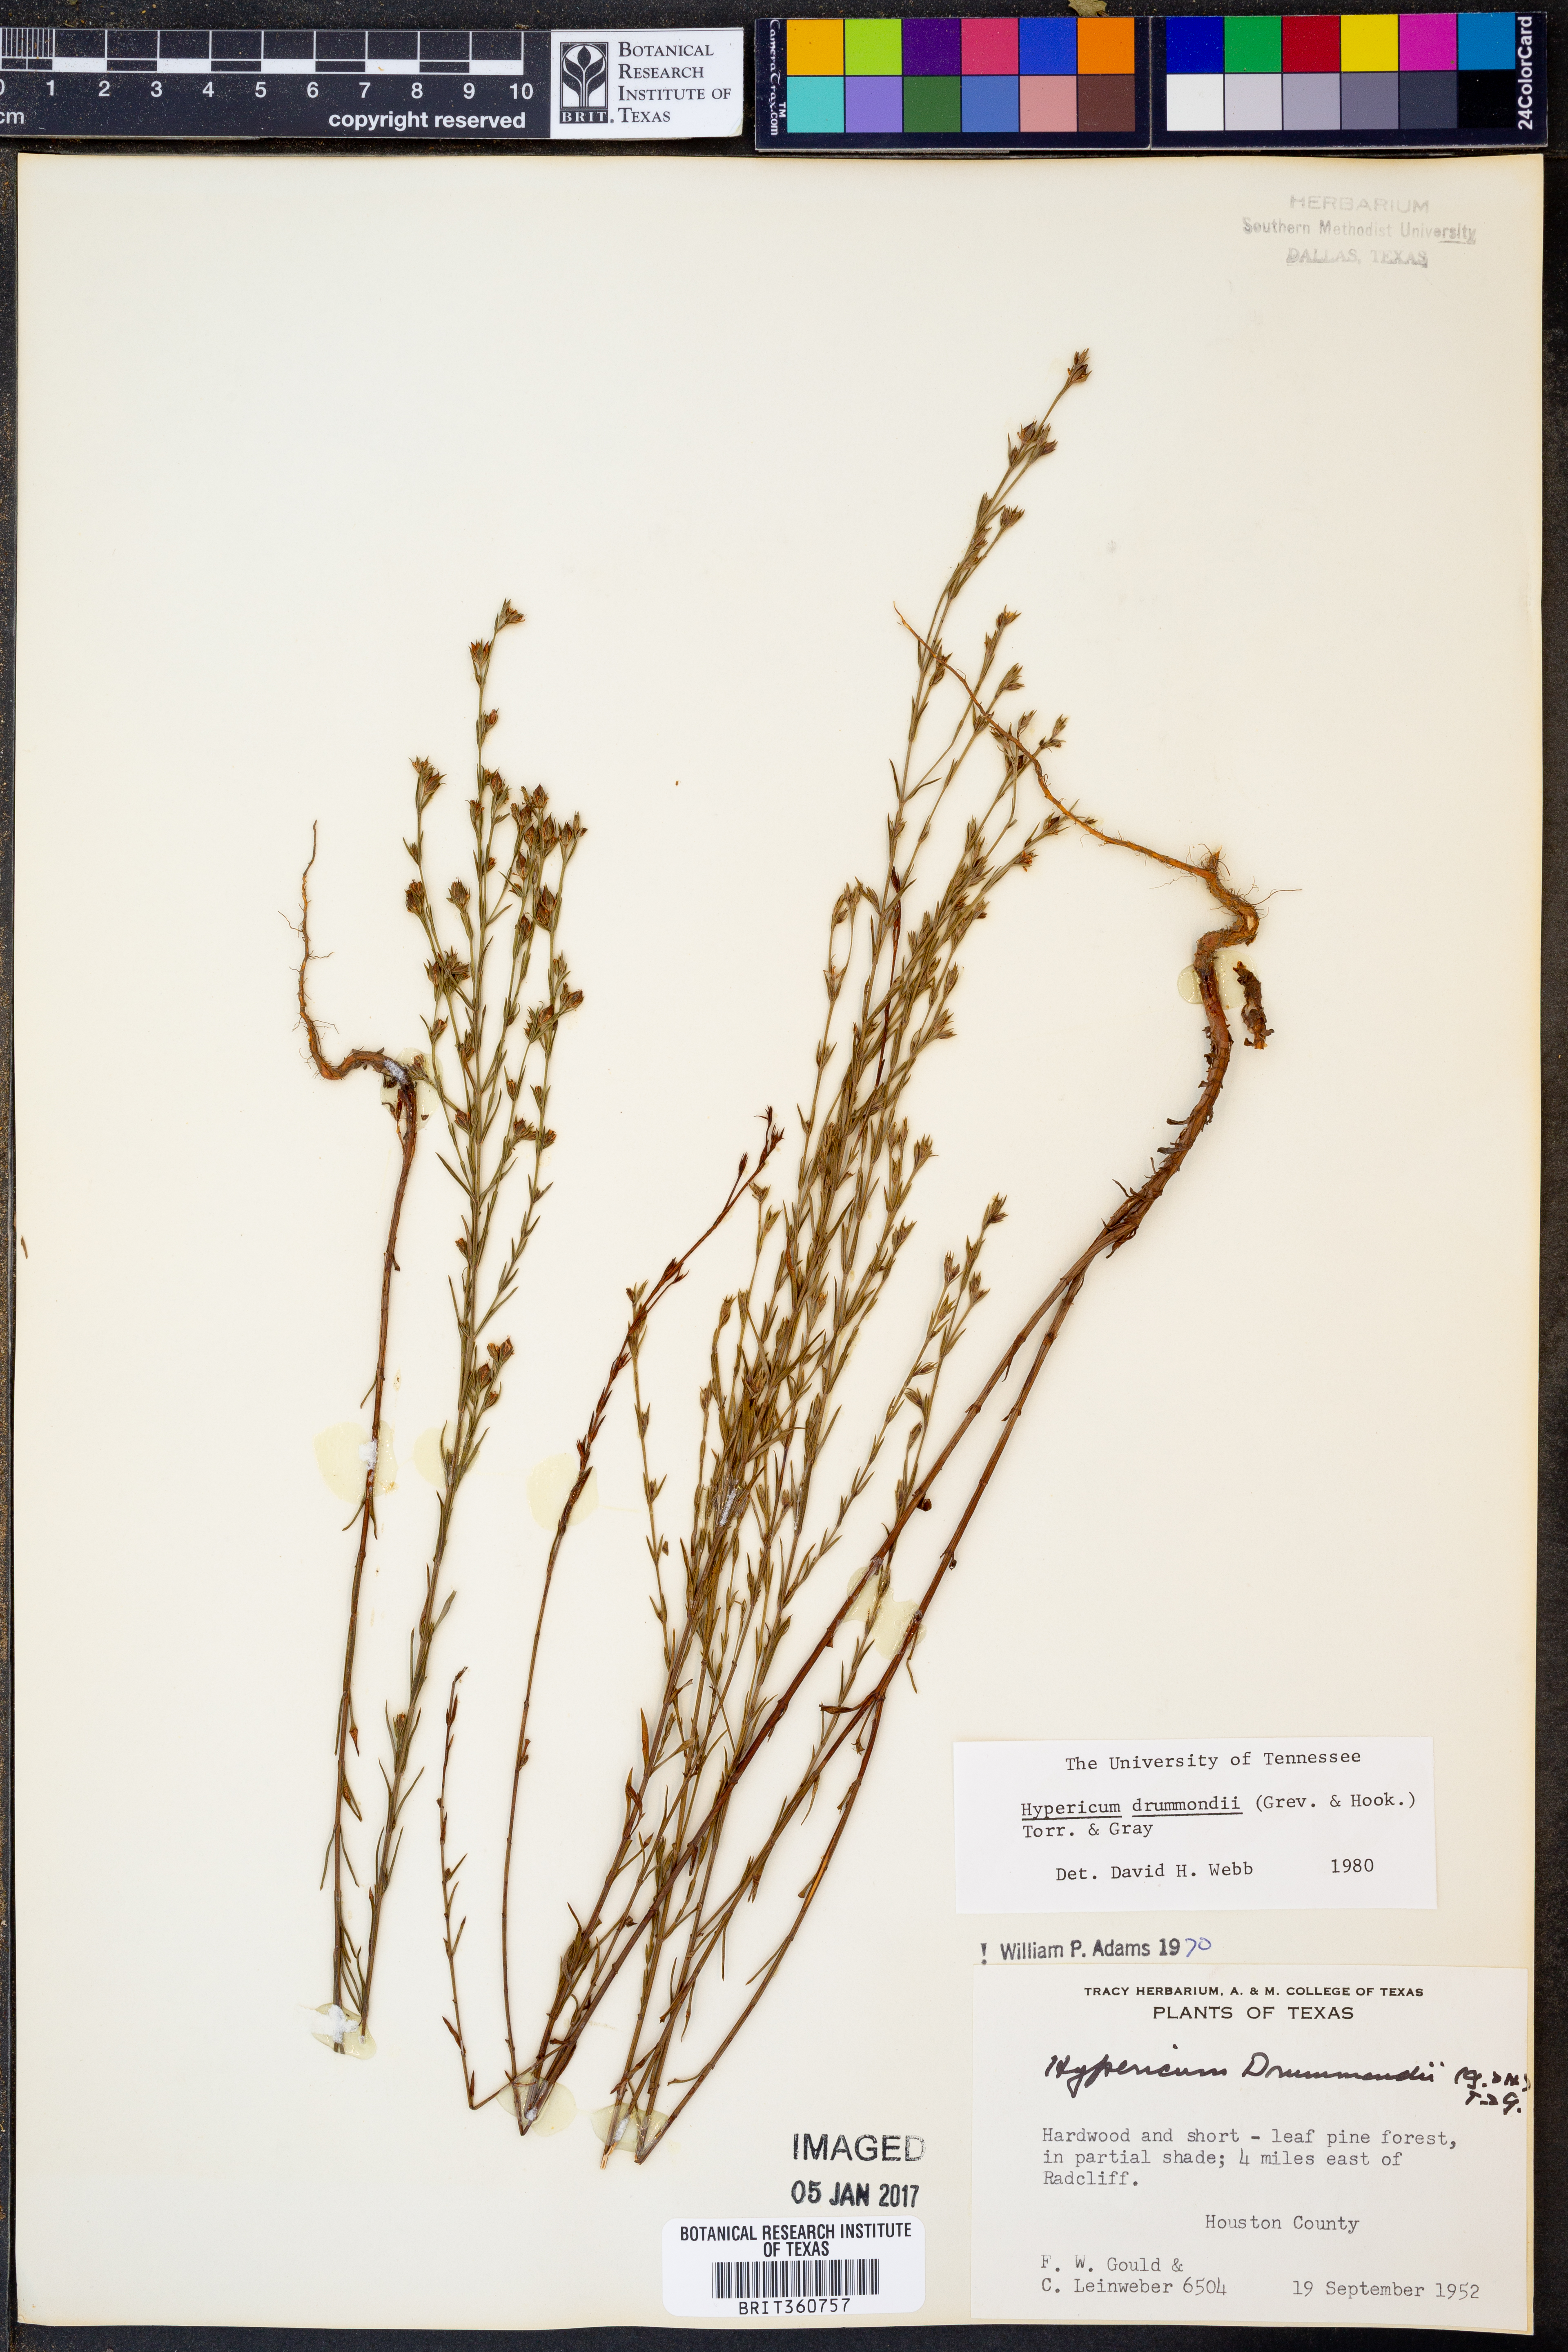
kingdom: Plantae
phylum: Tracheophyta
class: Magnoliopsida
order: Malpighiales
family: Hypericaceae
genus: Hypericum
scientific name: Hypericum drummondii
